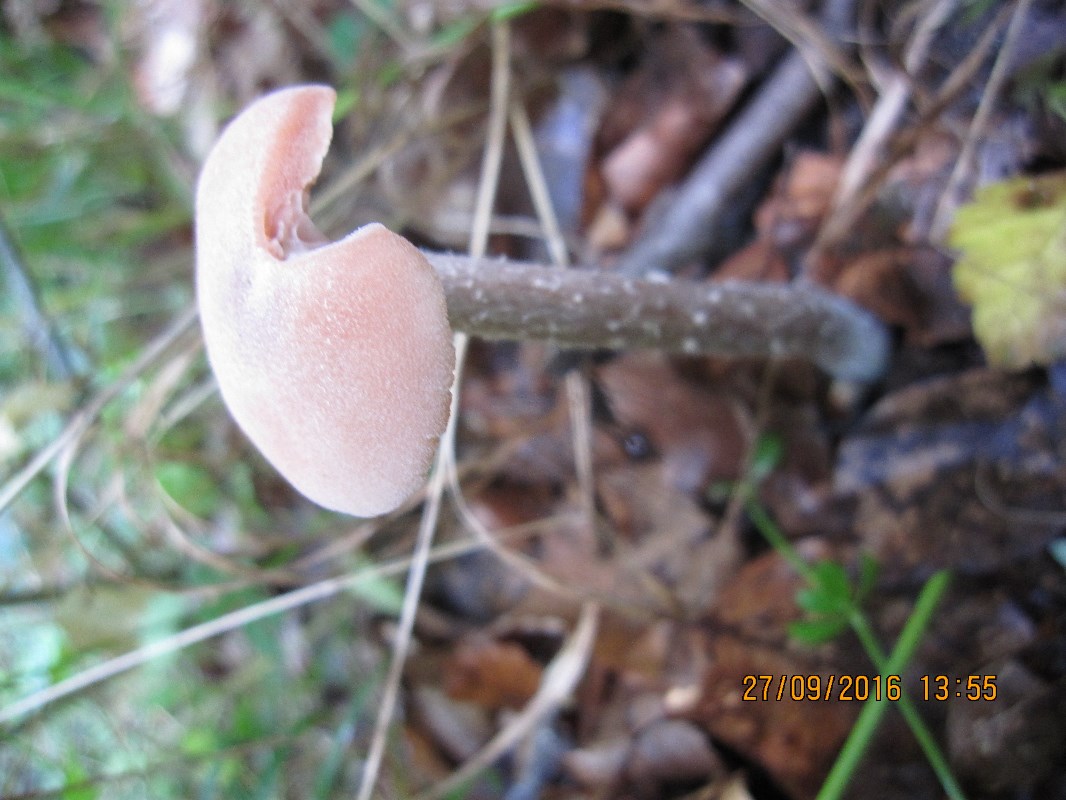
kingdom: Fungi
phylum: Basidiomycota
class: Agaricomycetes
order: Agaricales
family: Hydnangiaceae
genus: Laccaria
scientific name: Laccaria proxima
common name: stor ametysthat
